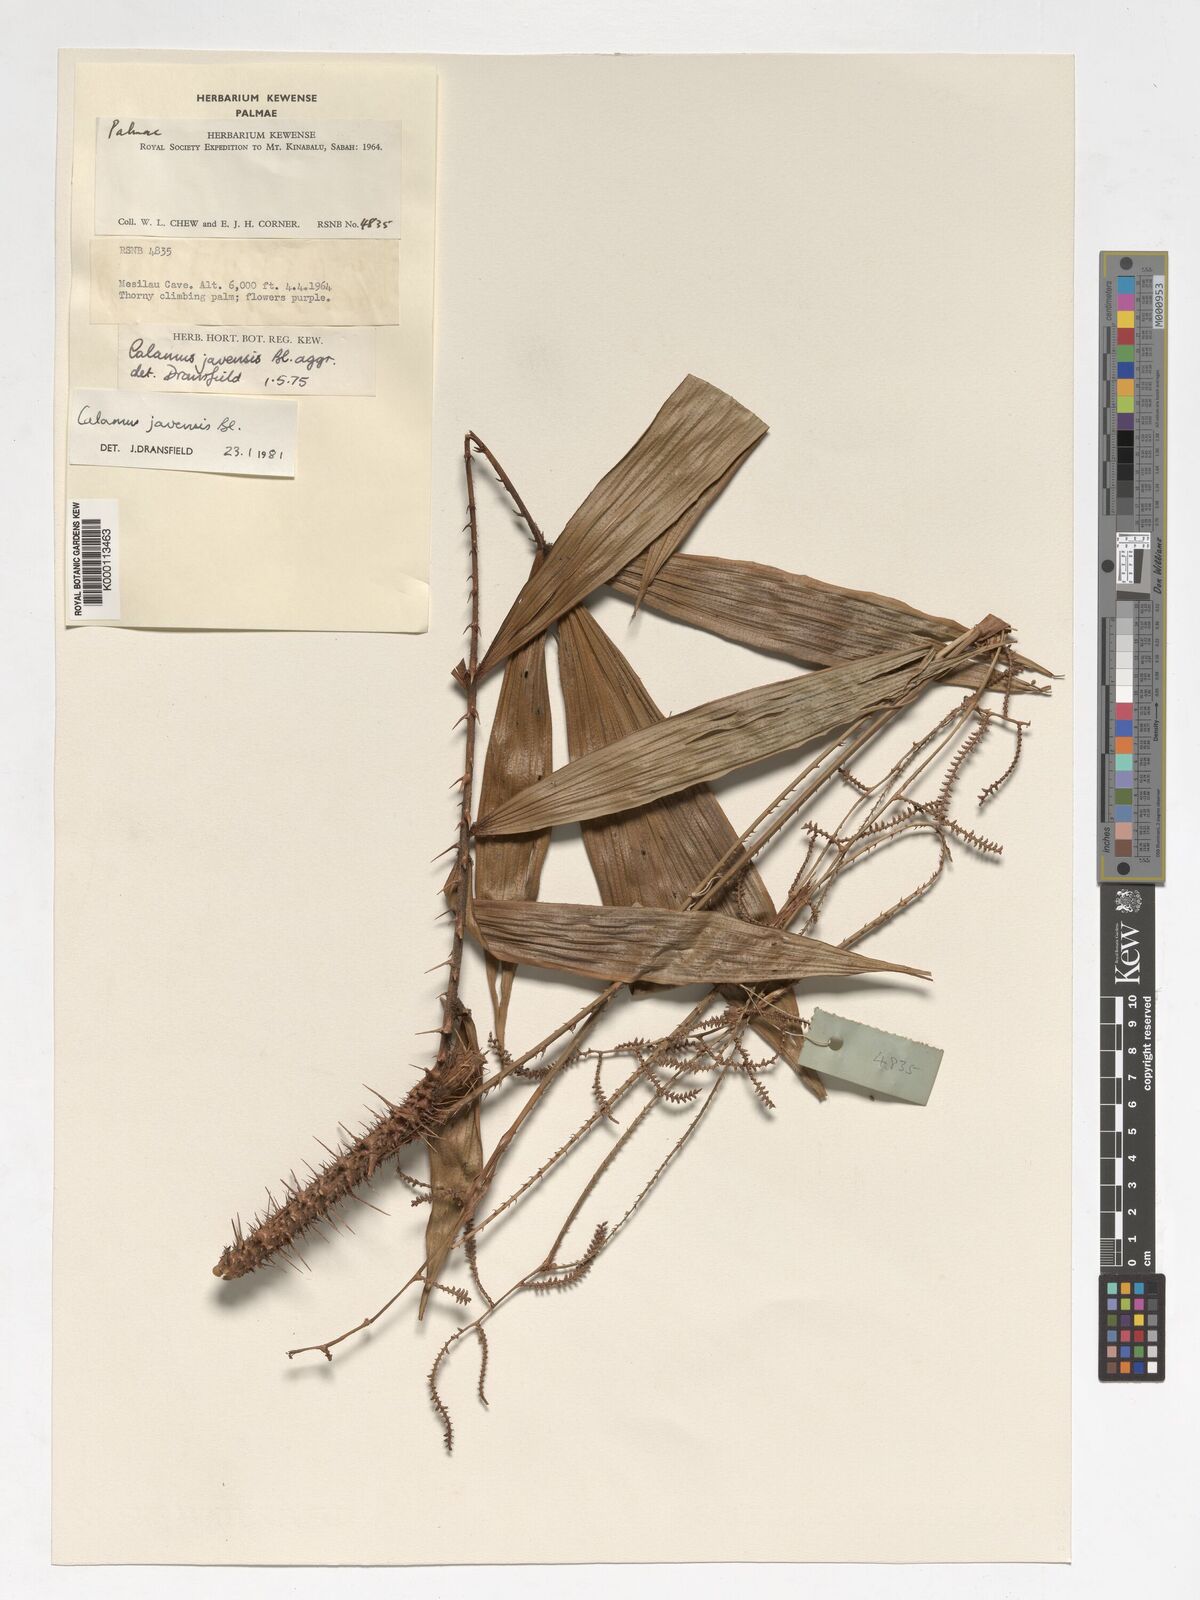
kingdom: Plantae
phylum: Tracheophyta
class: Liliopsida
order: Arecales
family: Arecaceae
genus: Calamus
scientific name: Calamus javensis
